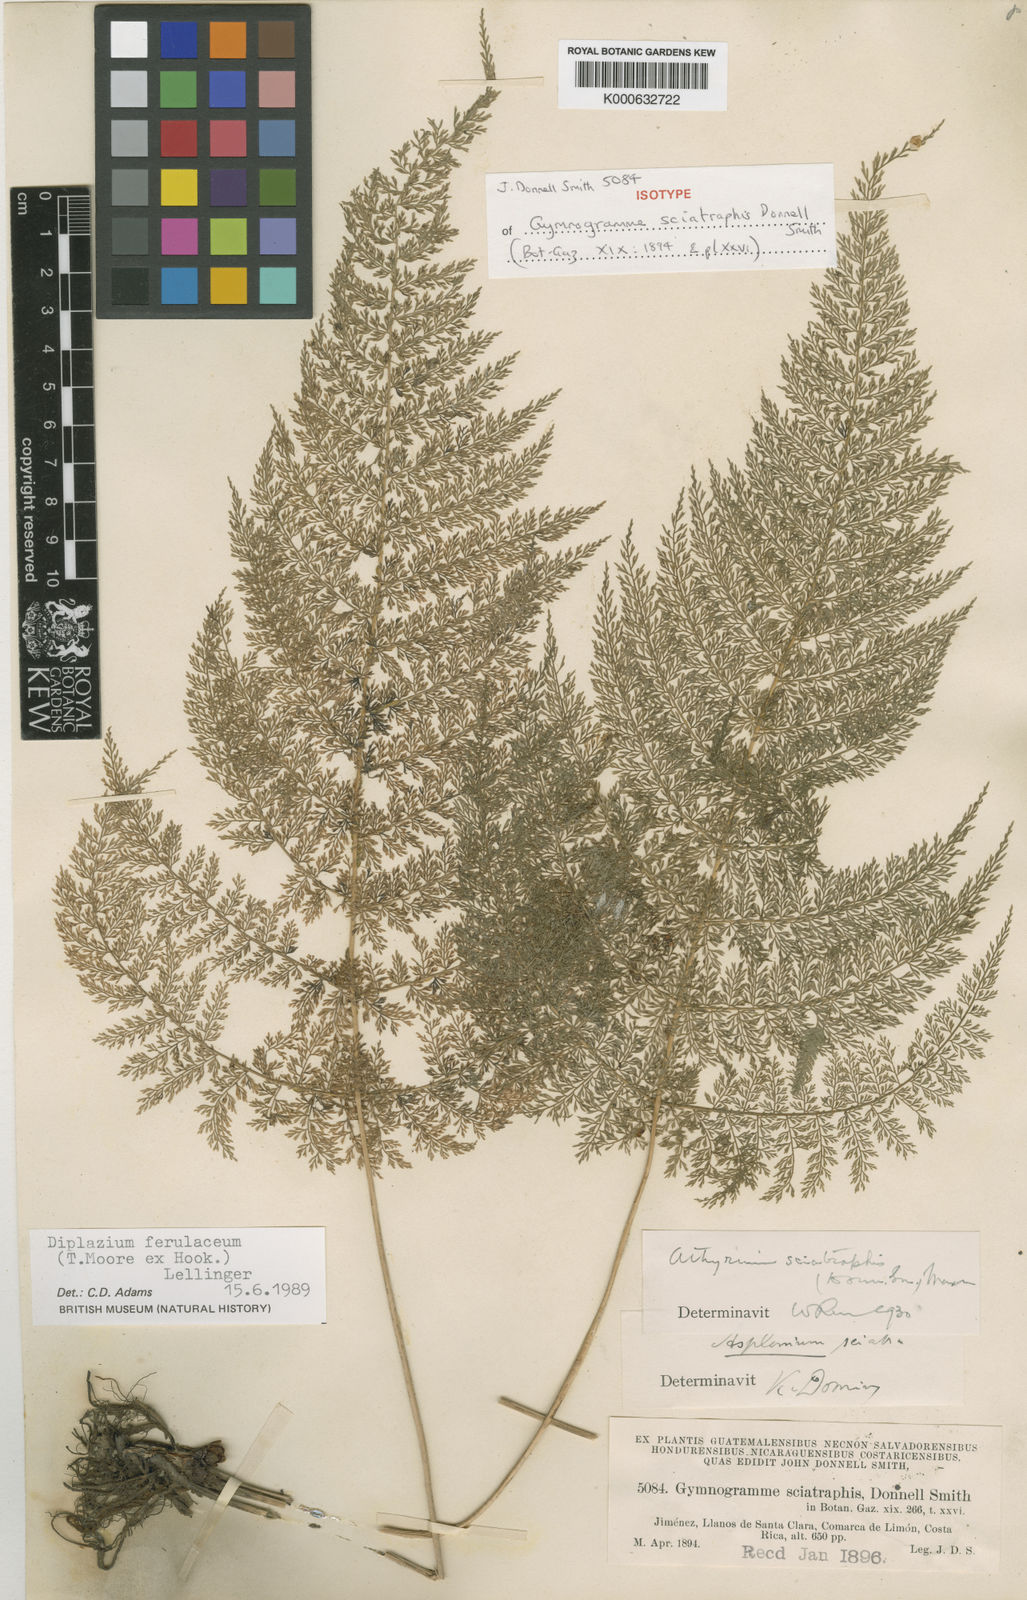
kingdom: Plantae
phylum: Tracheophyta
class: Polypodiopsida
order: Polypodiales
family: Athyriaceae
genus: Athyrium
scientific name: Athyrium ferulaceum
